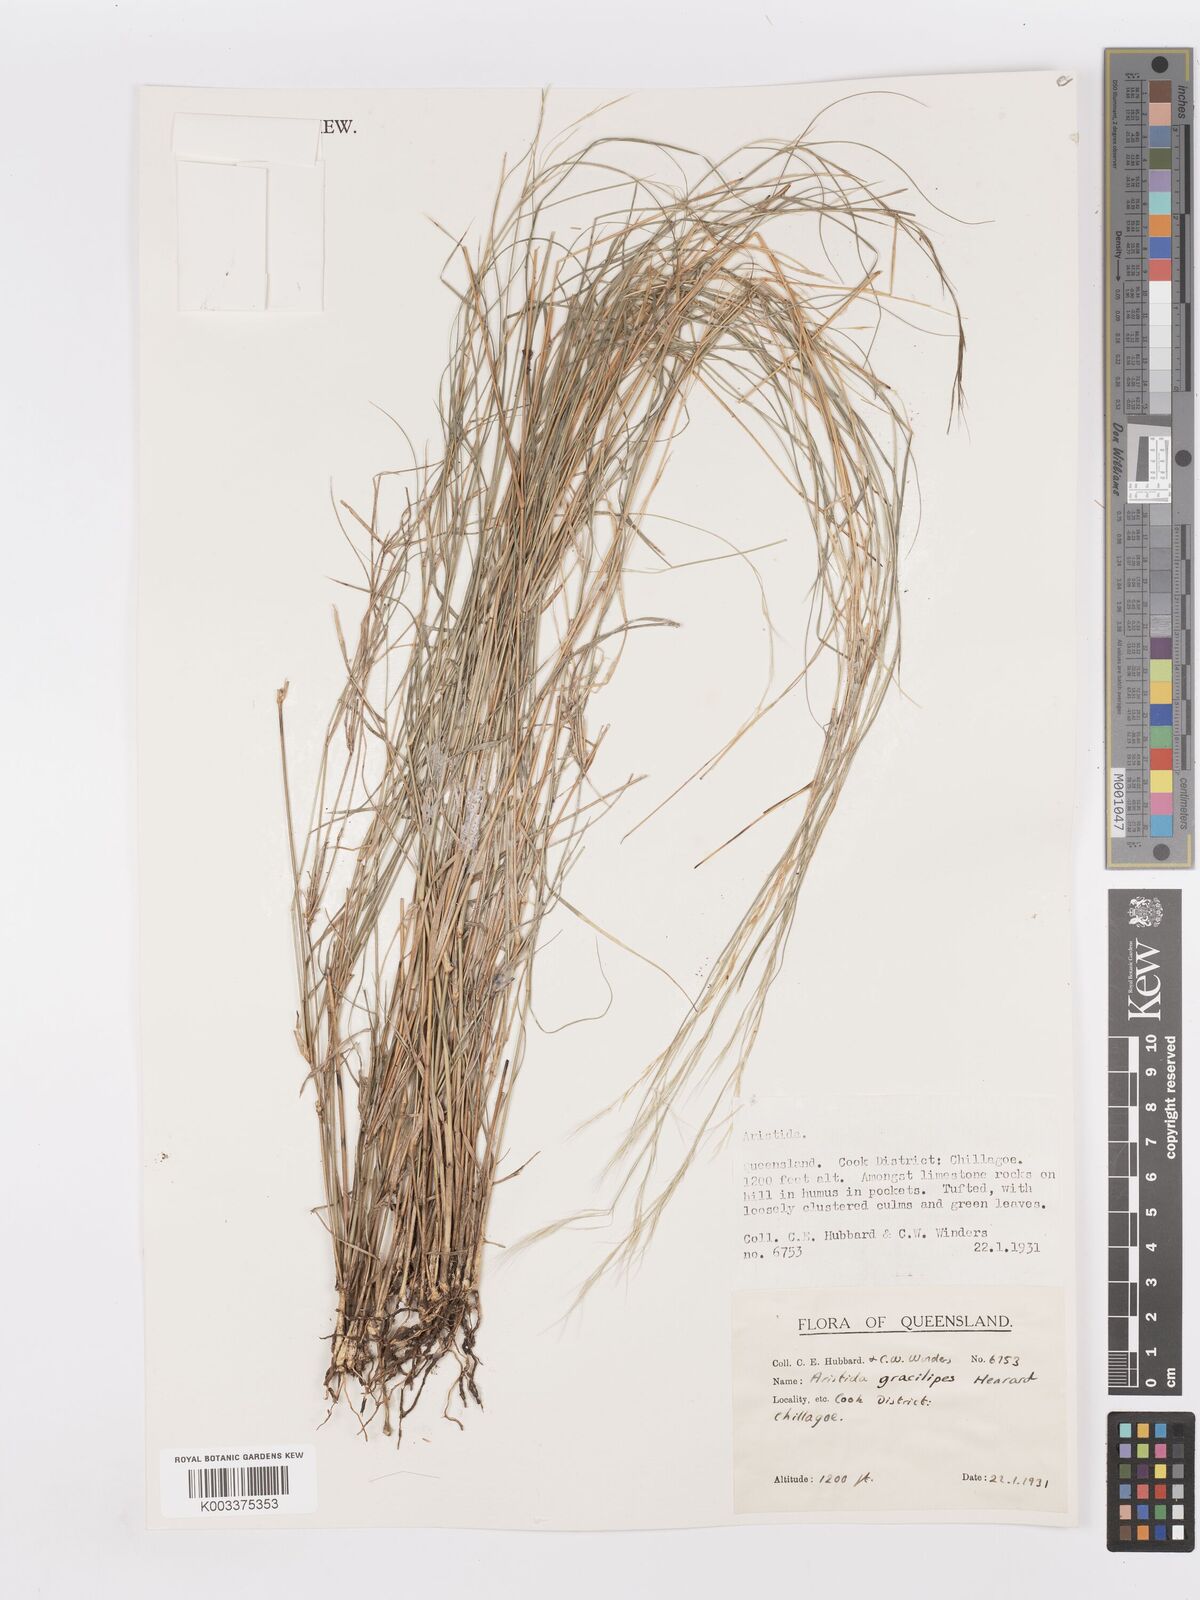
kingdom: Plantae
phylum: Tracheophyta
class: Liliopsida
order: Poales
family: Poaceae
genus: Aristida
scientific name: Aristida gracilipes
